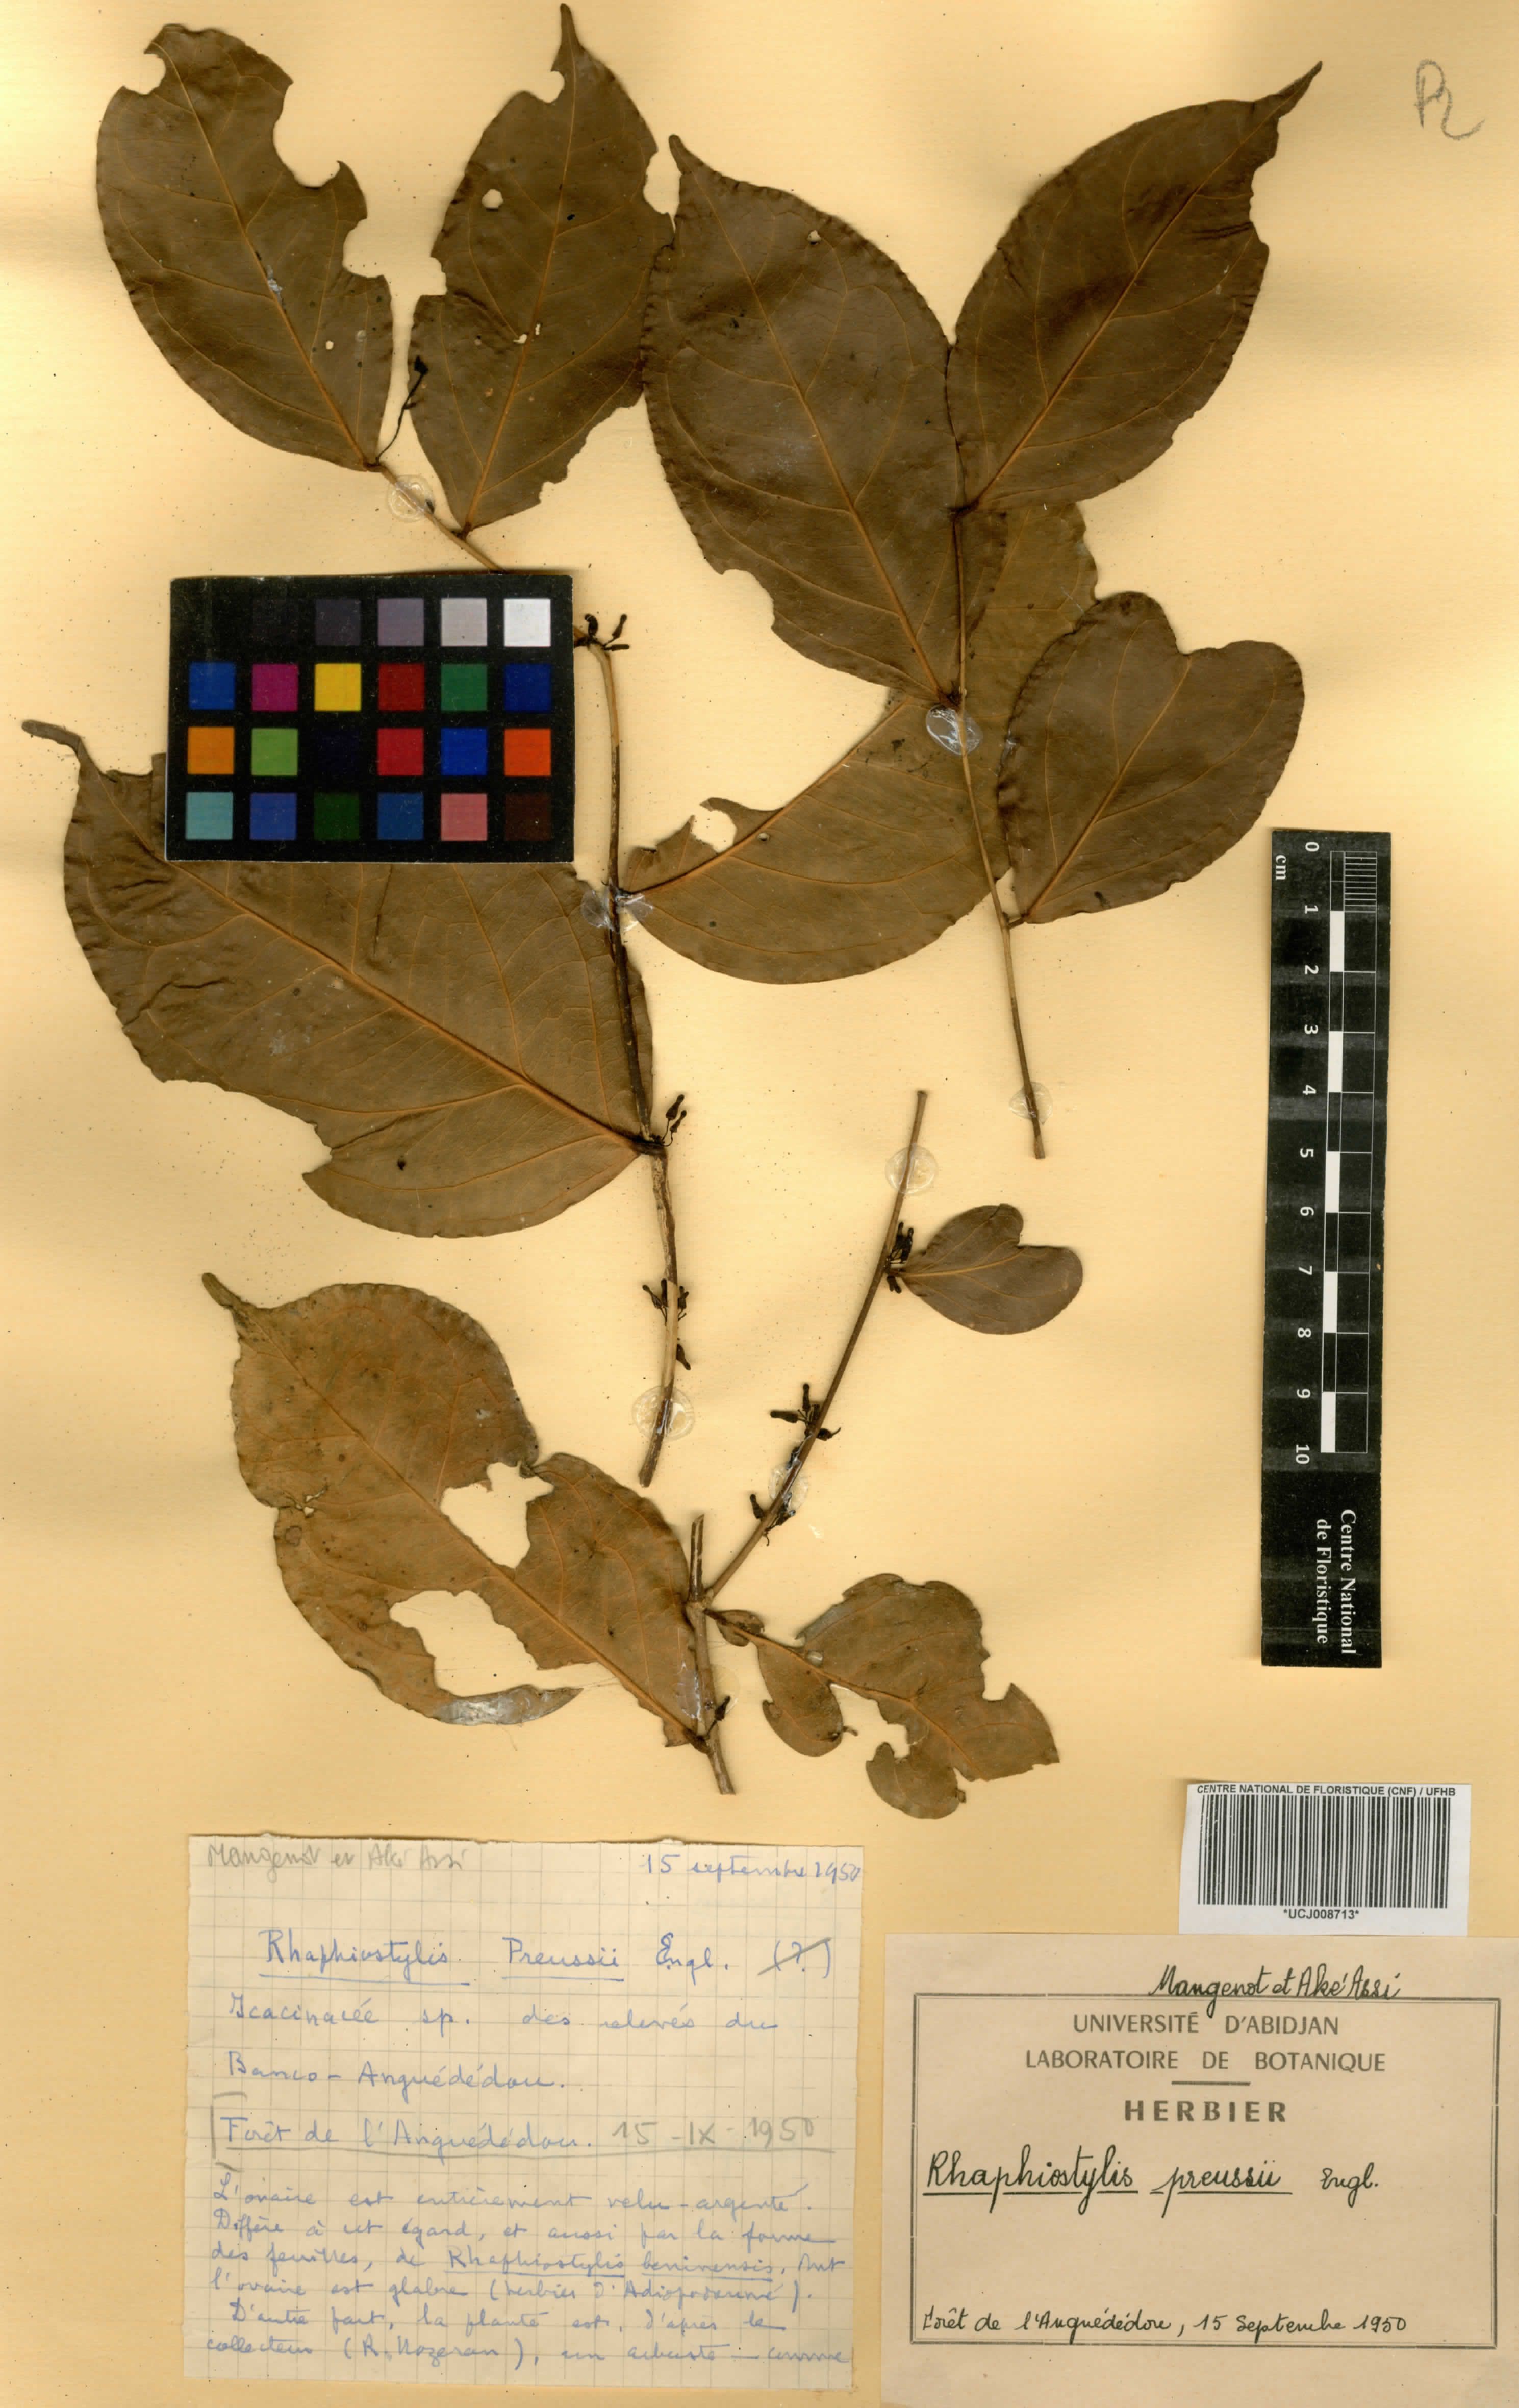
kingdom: Plantae
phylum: Tracheophyta
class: Magnoliopsida
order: Metteniusales
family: Metteniusaceae
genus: Rhaphiostylis
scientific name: Rhaphiostylis preussii
